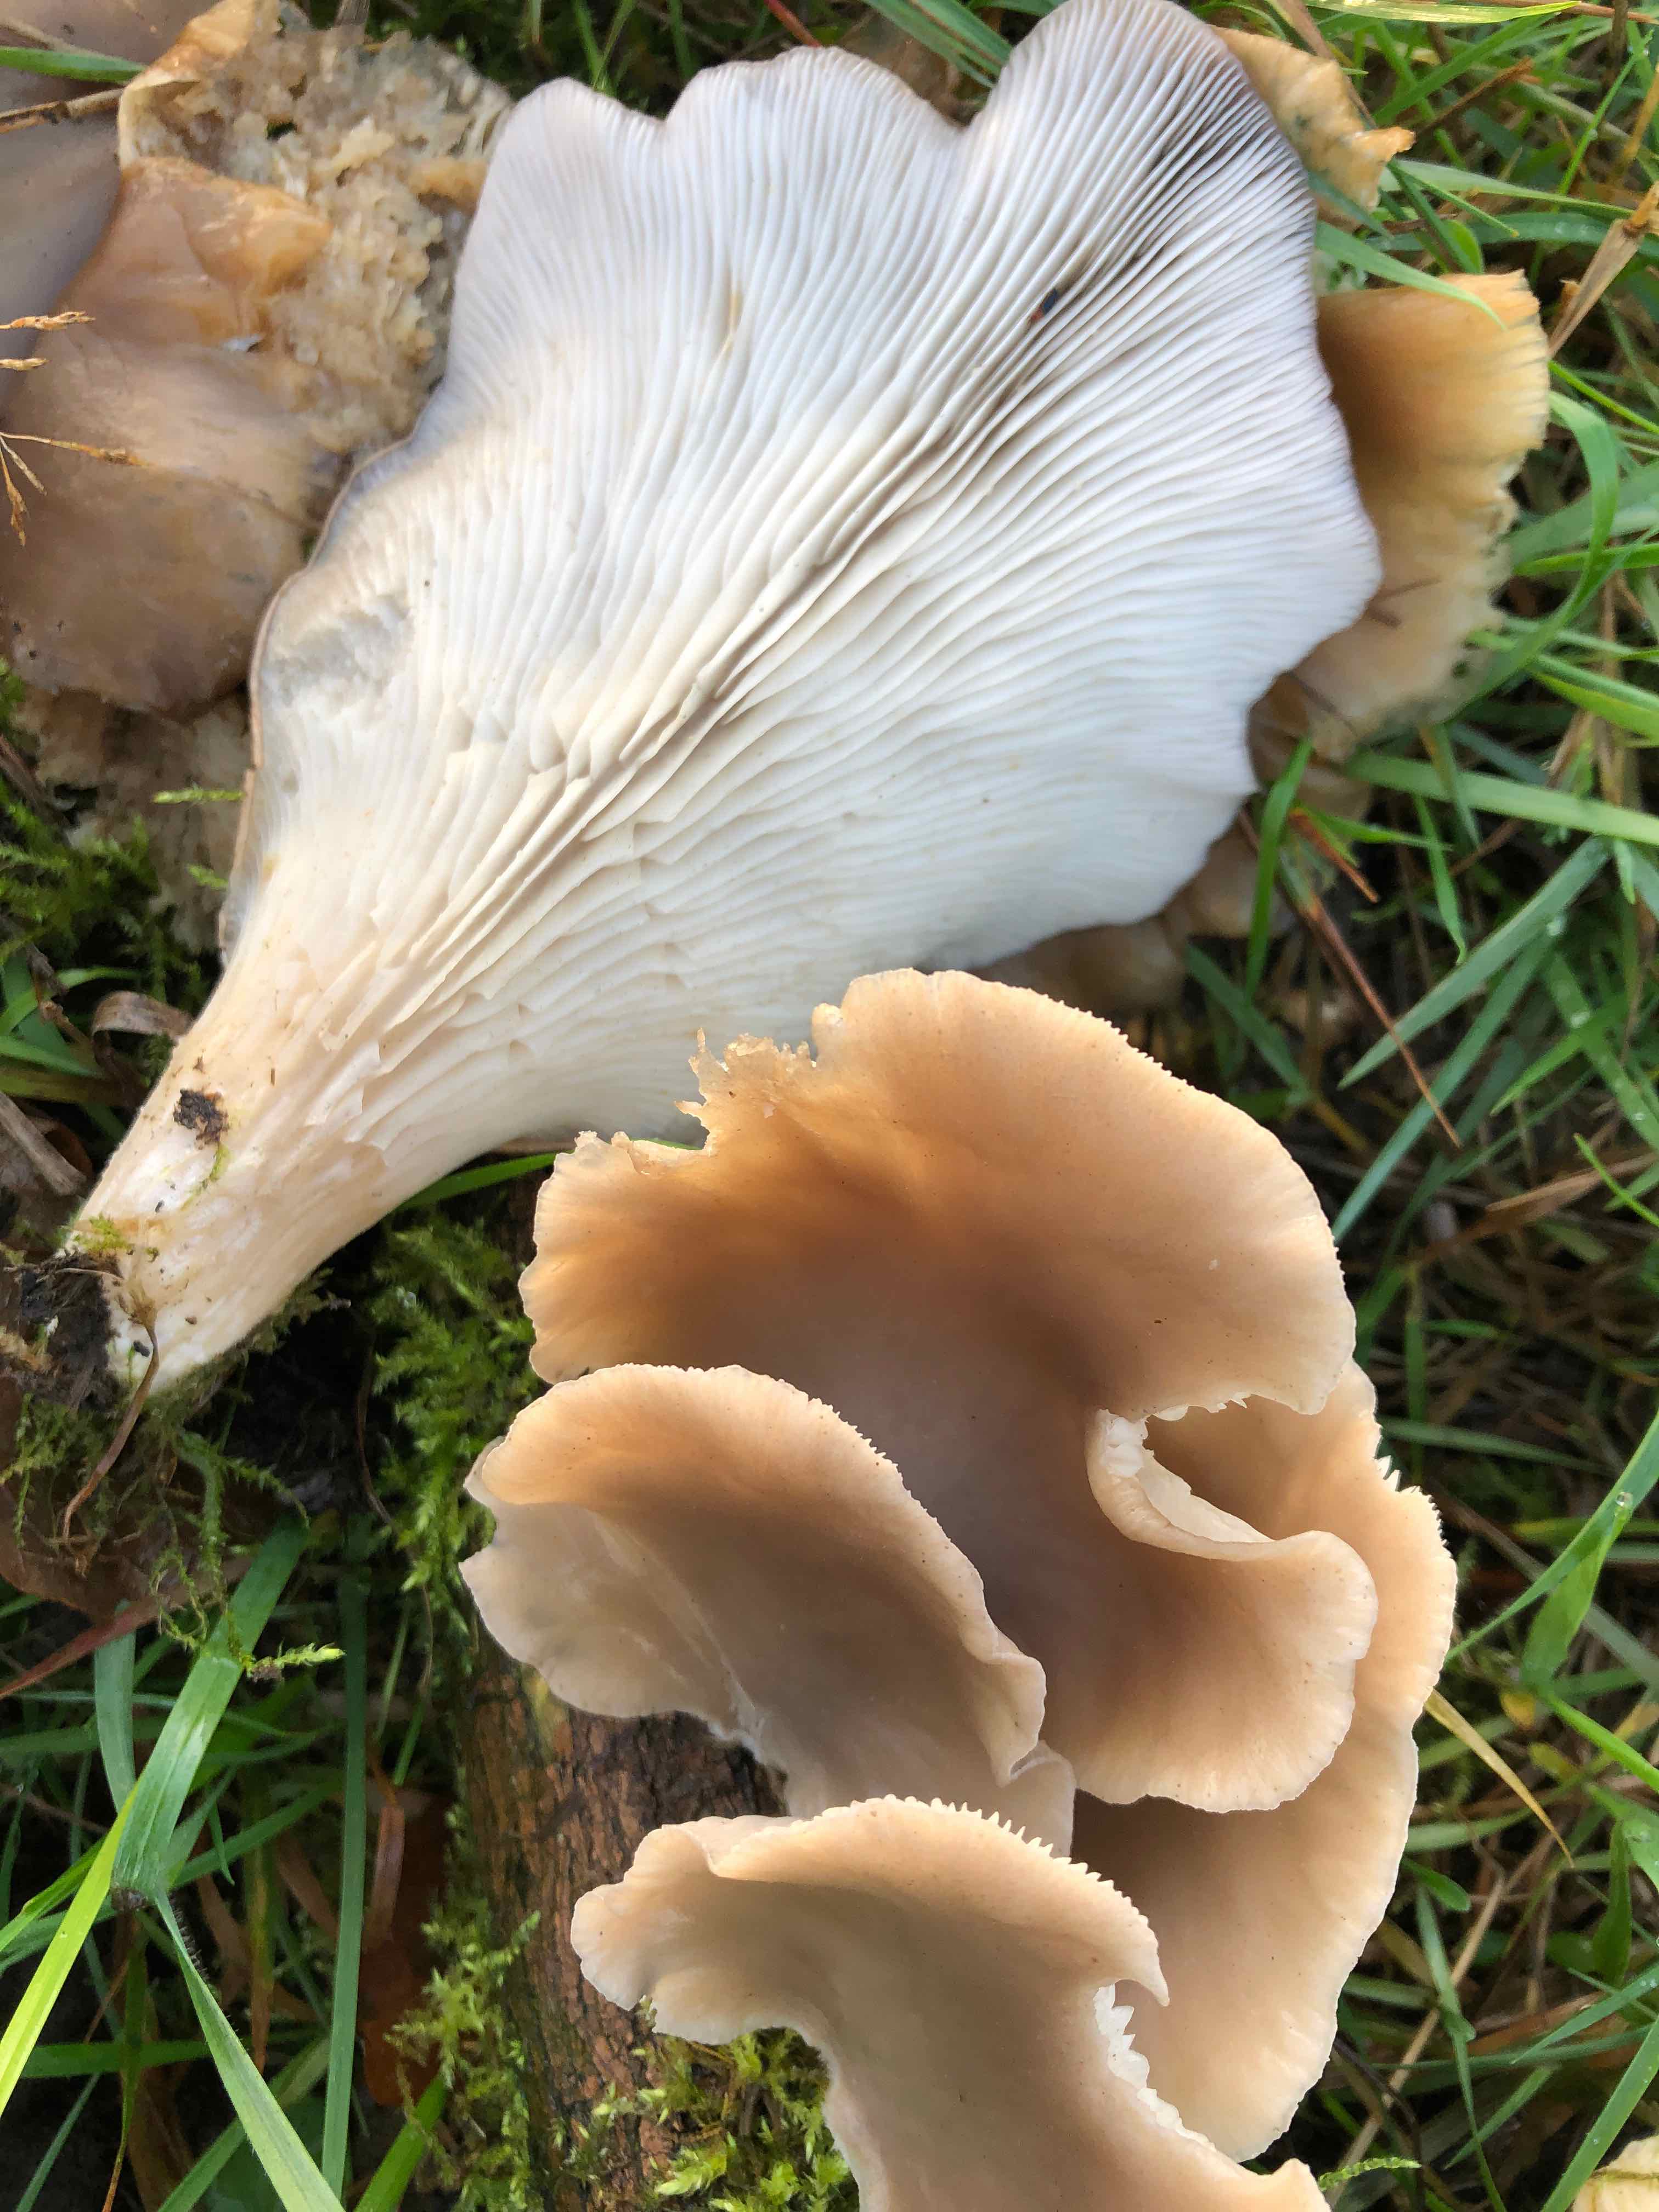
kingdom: Fungi
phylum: Basidiomycota
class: Agaricomycetes
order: Agaricales
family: Pleurotaceae
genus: Pleurotus
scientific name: Pleurotus
